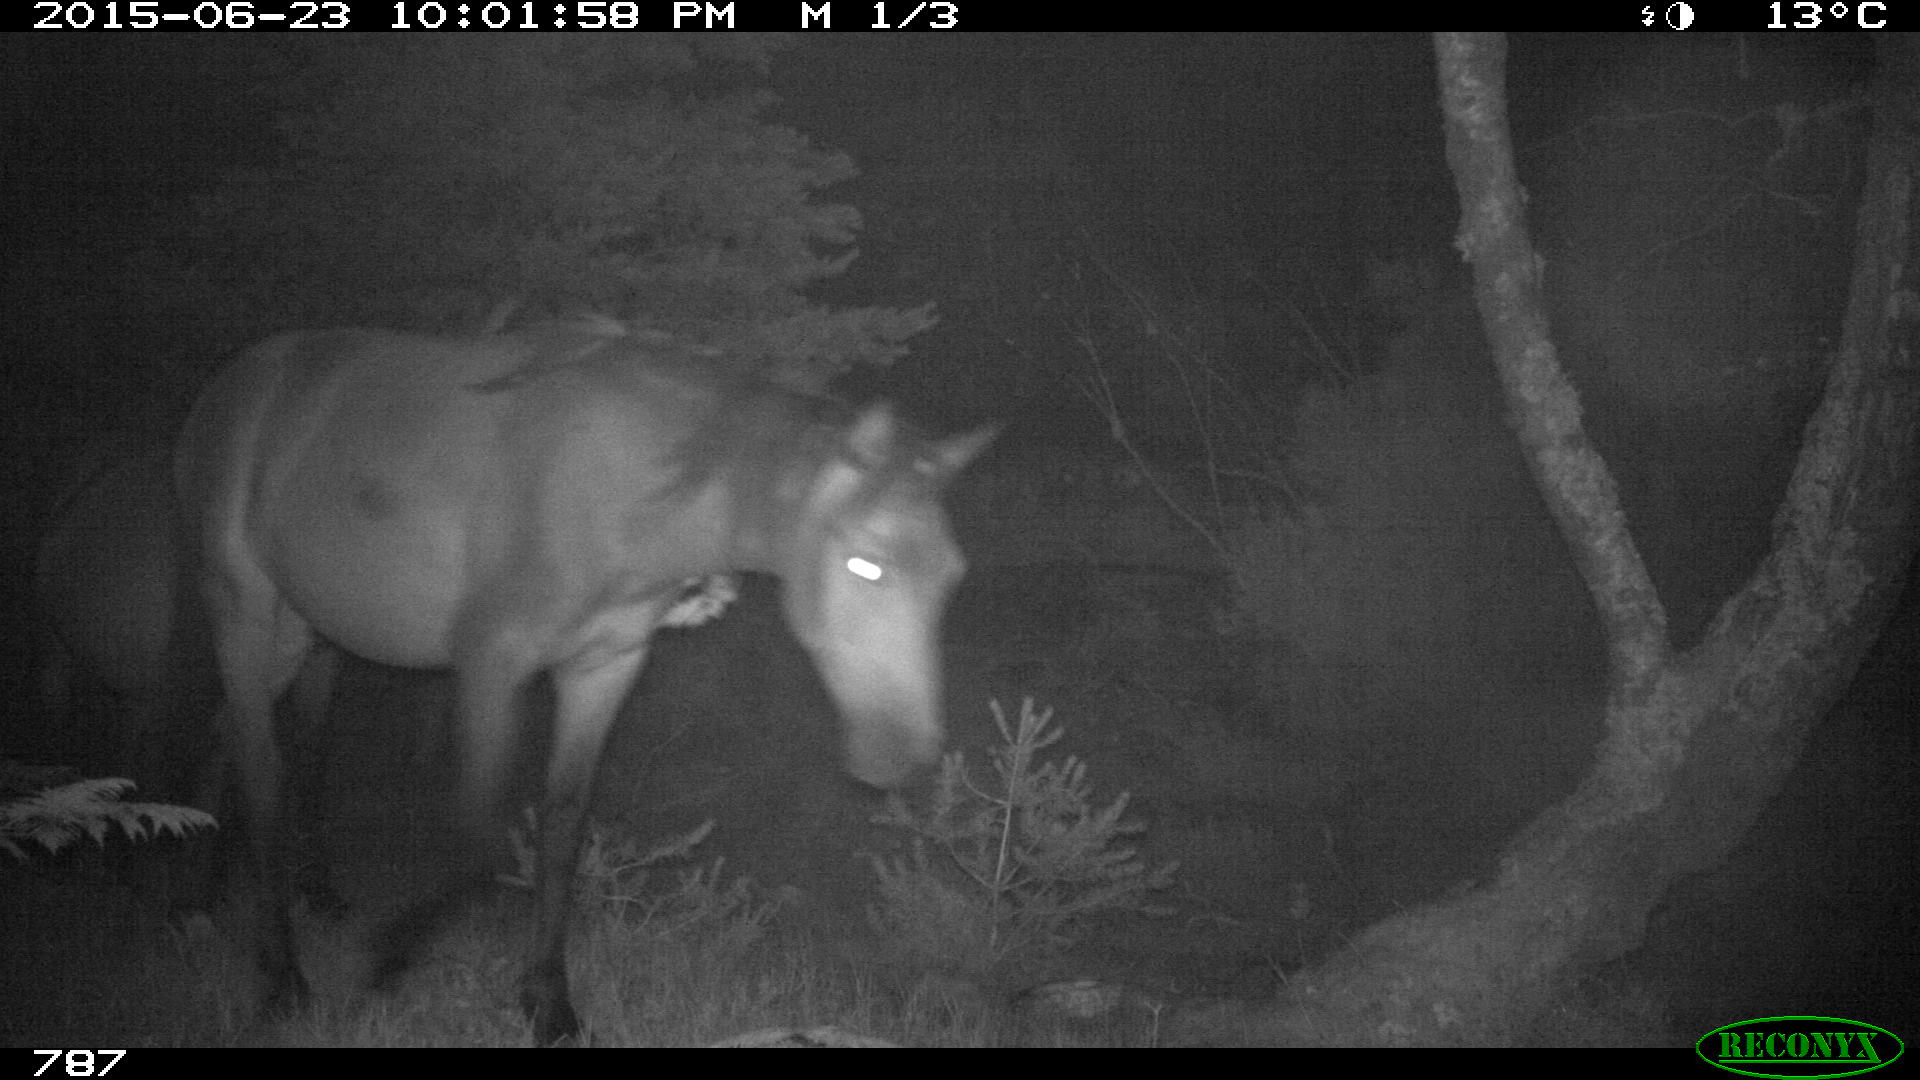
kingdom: Animalia
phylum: Chordata
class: Mammalia
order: Perissodactyla
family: Equidae
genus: Equus
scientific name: Equus caballus
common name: Horse
